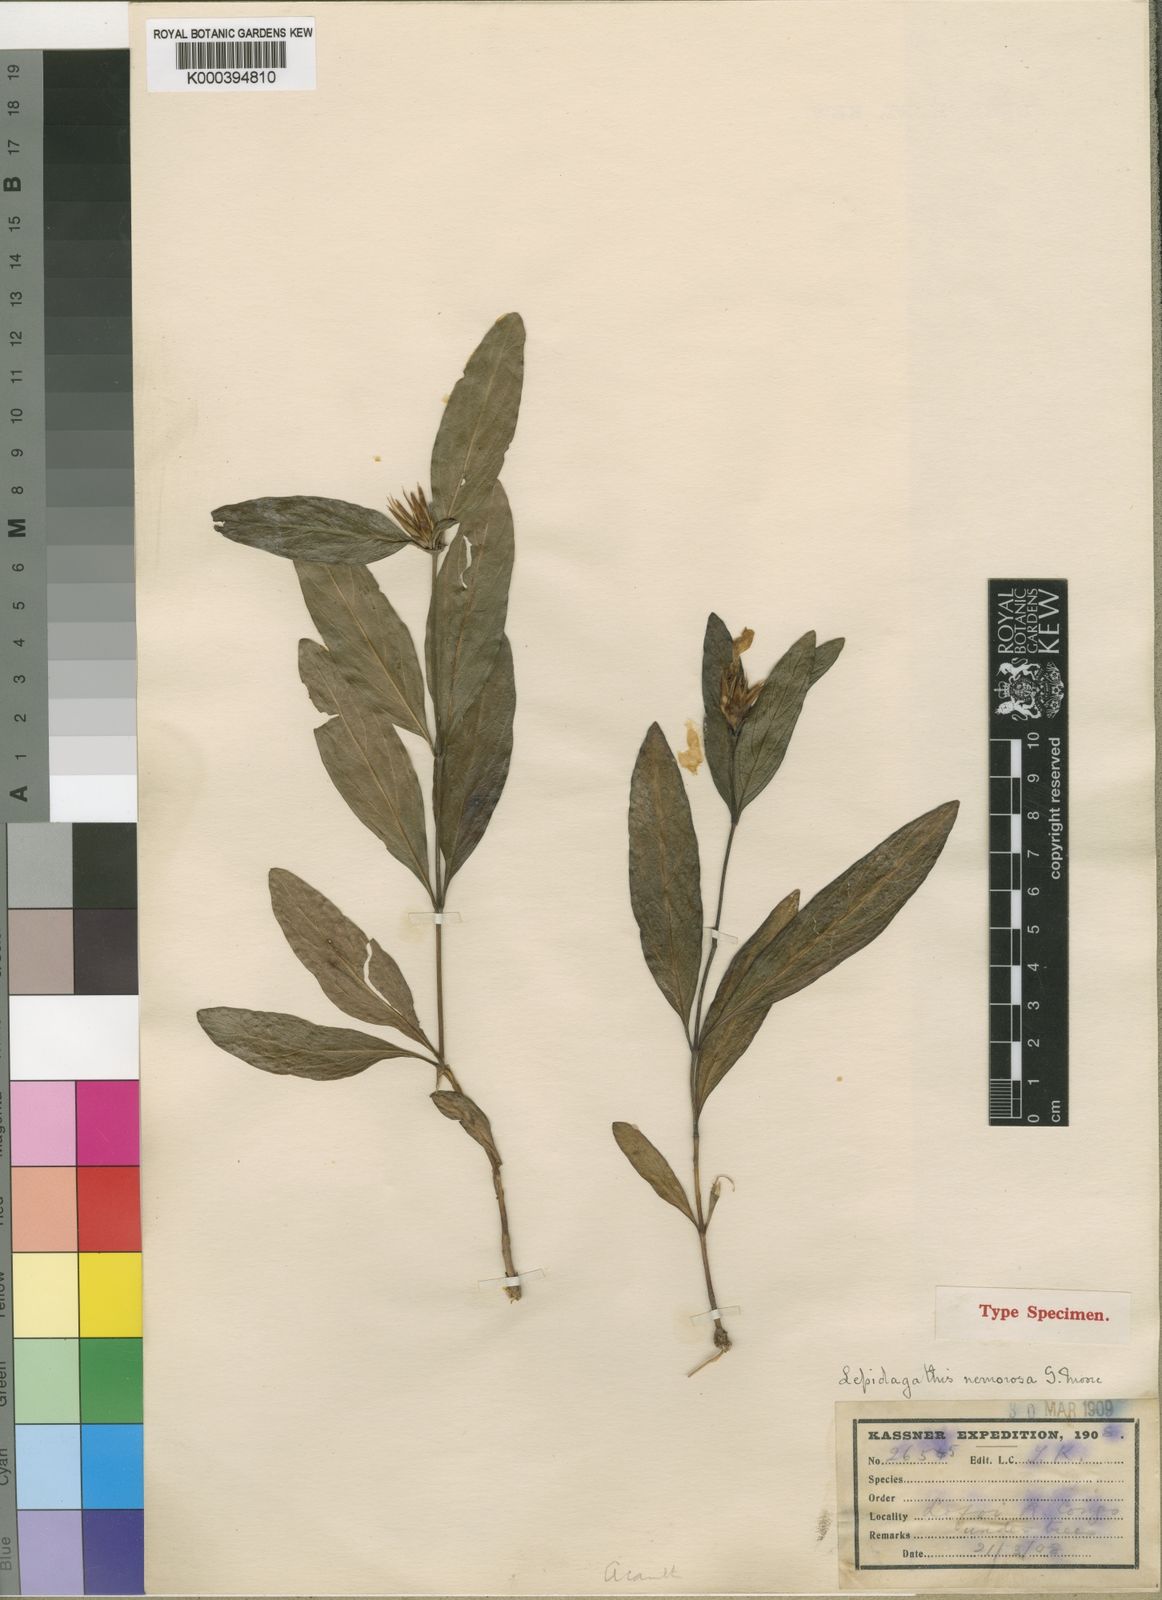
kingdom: Plantae
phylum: Tracheophyta
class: Magnoliopsida
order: Lamiales
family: Acanthaceae
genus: Lepidagathis
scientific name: Lepidagathis nemorosa
